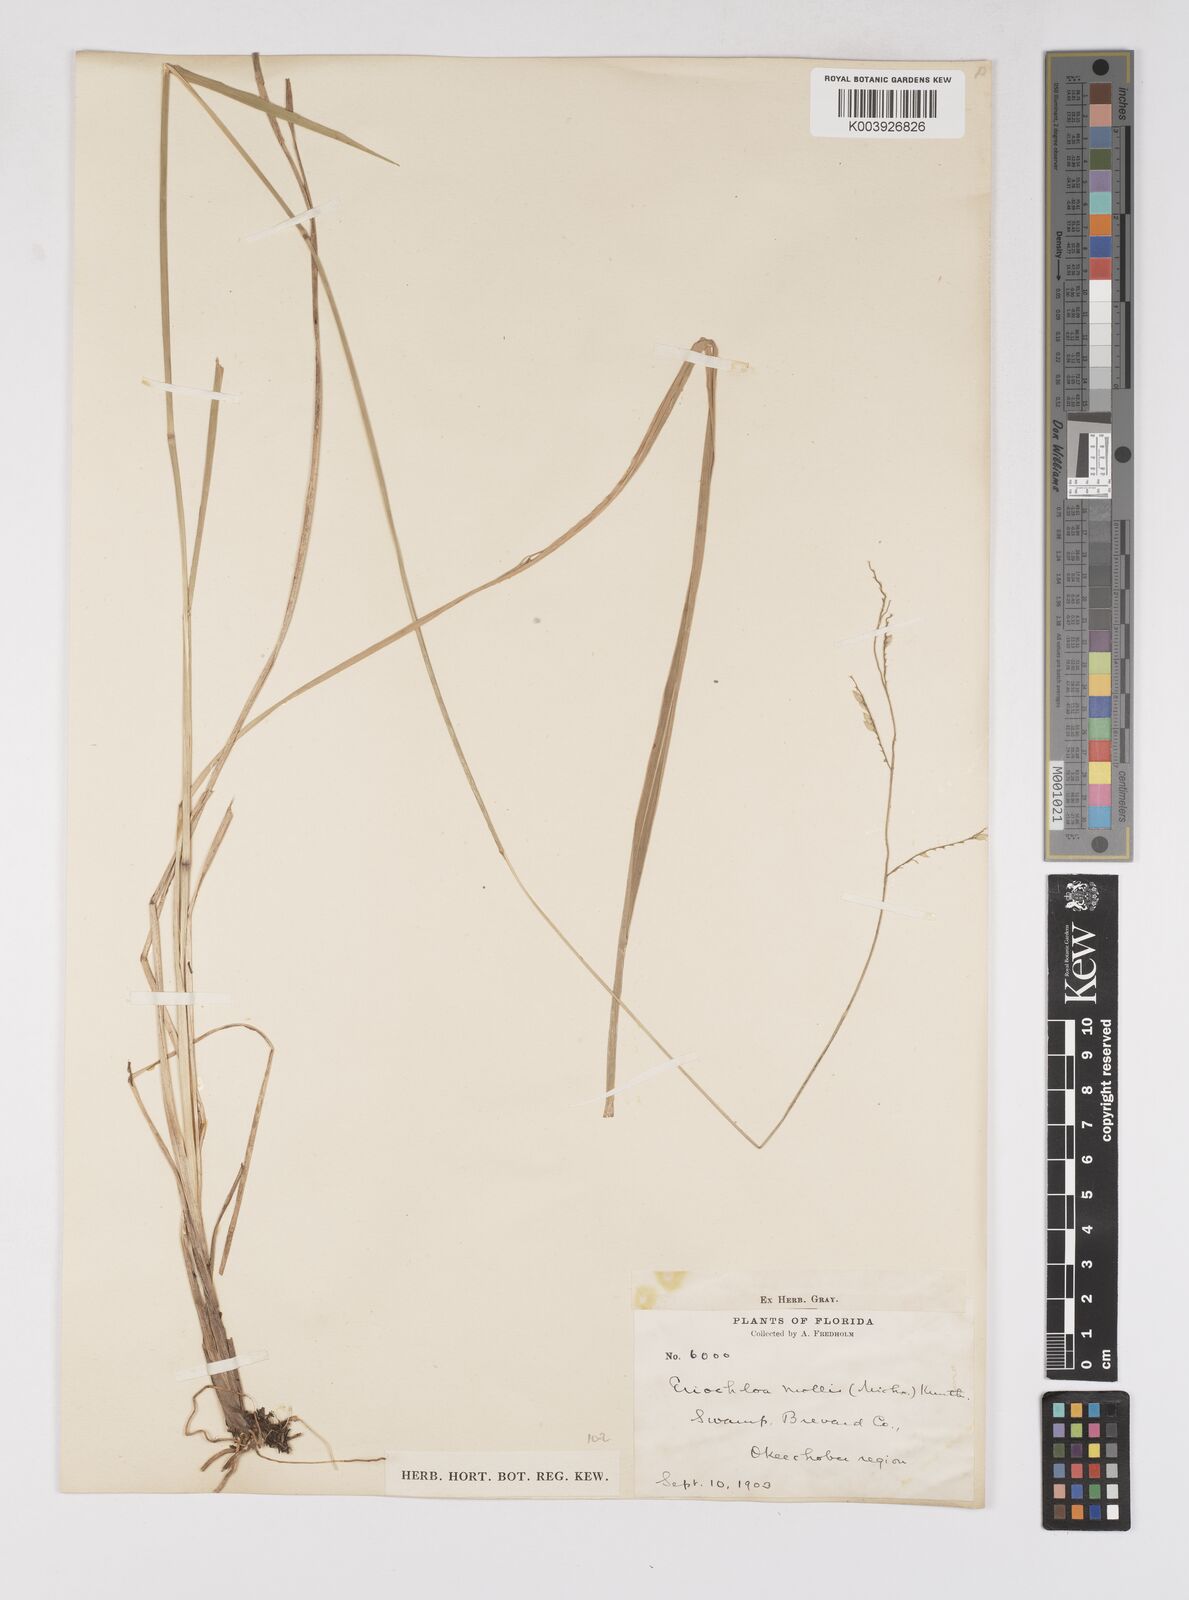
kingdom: Plantae
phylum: Tracheophyta
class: Liliopsida
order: Poales
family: Poaceae
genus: Eriochloa
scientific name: Eriochloa michauxii
